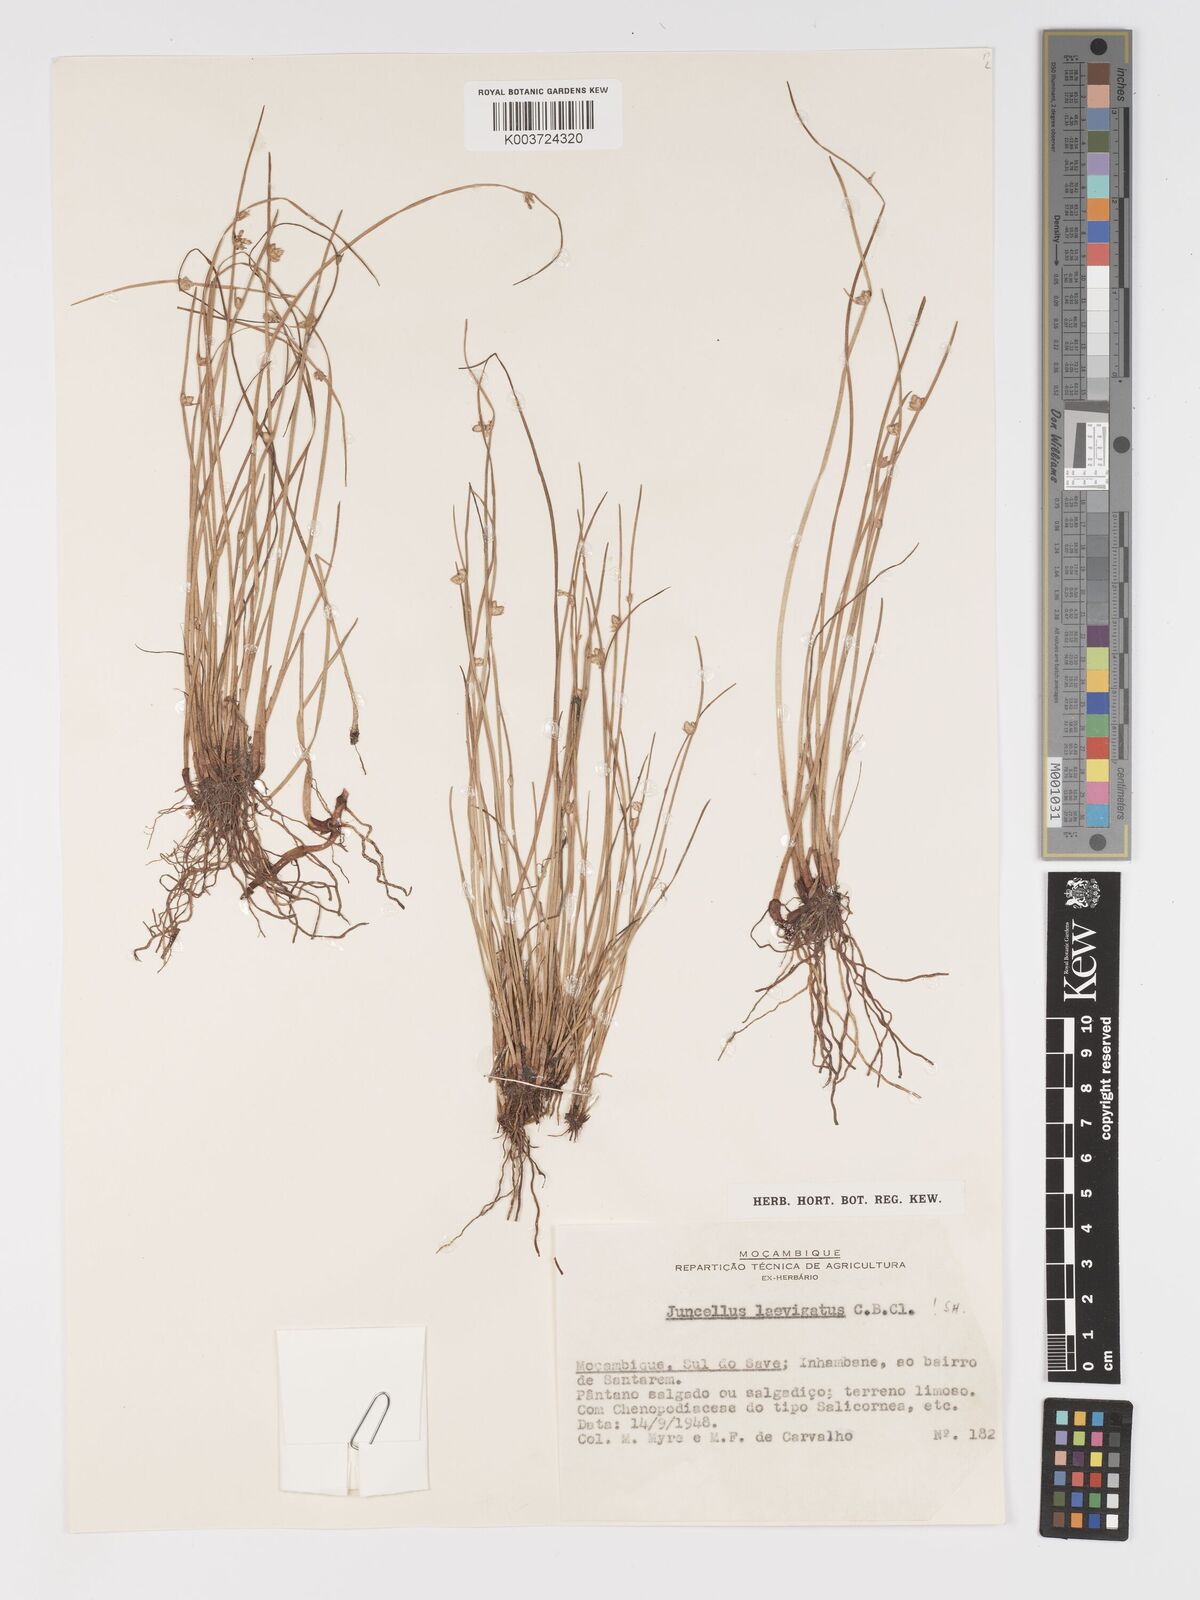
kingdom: Plantae
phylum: Tracheophyta
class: Liliopsida
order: Poales
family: Cyperaceae
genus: Cyperus
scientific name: Cyperus laevigatus
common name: Smooth flat sedge
